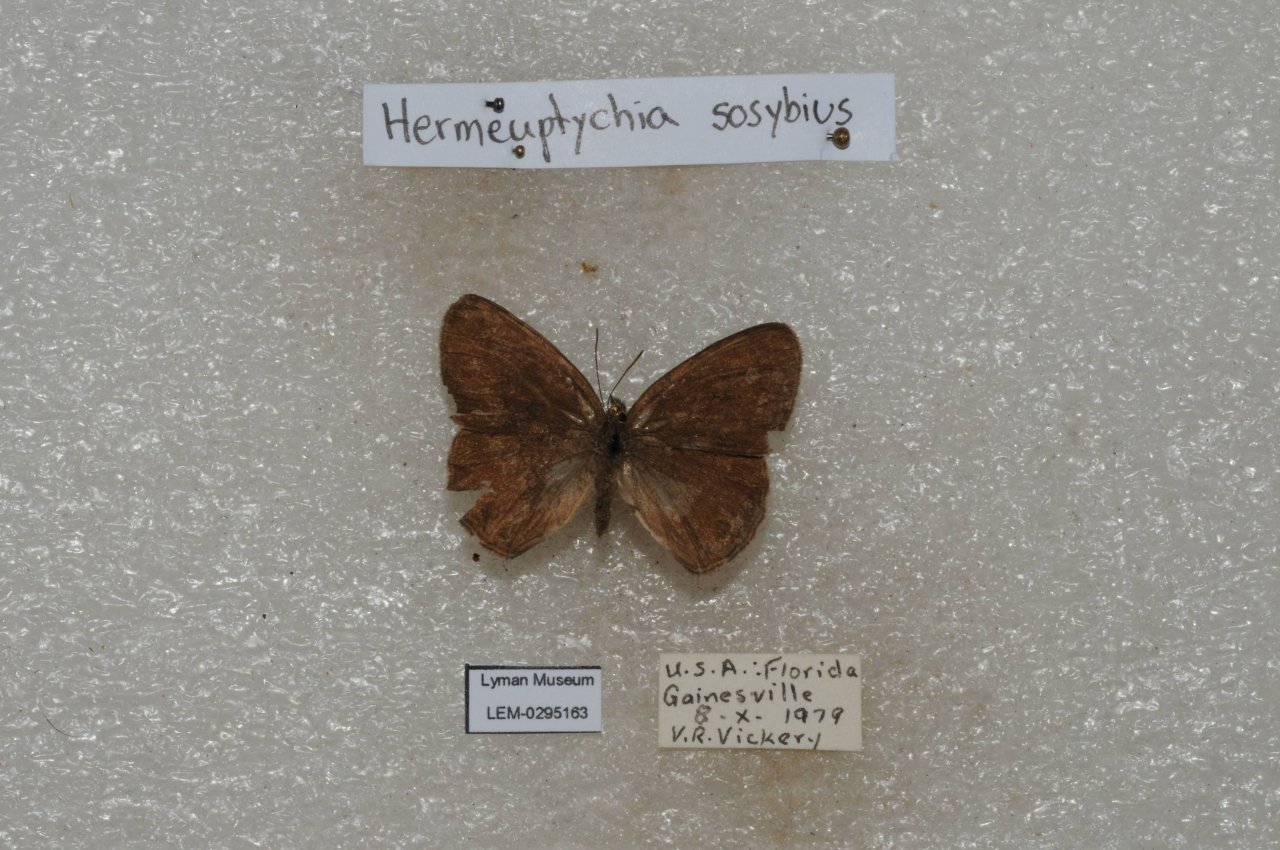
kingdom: Animalia
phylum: Arthropoda
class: Insecta
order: Lepidoptera
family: Nymphalidae
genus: Hermeuptychia
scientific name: Hermeuptychia hermes
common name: Carolina Satyr
